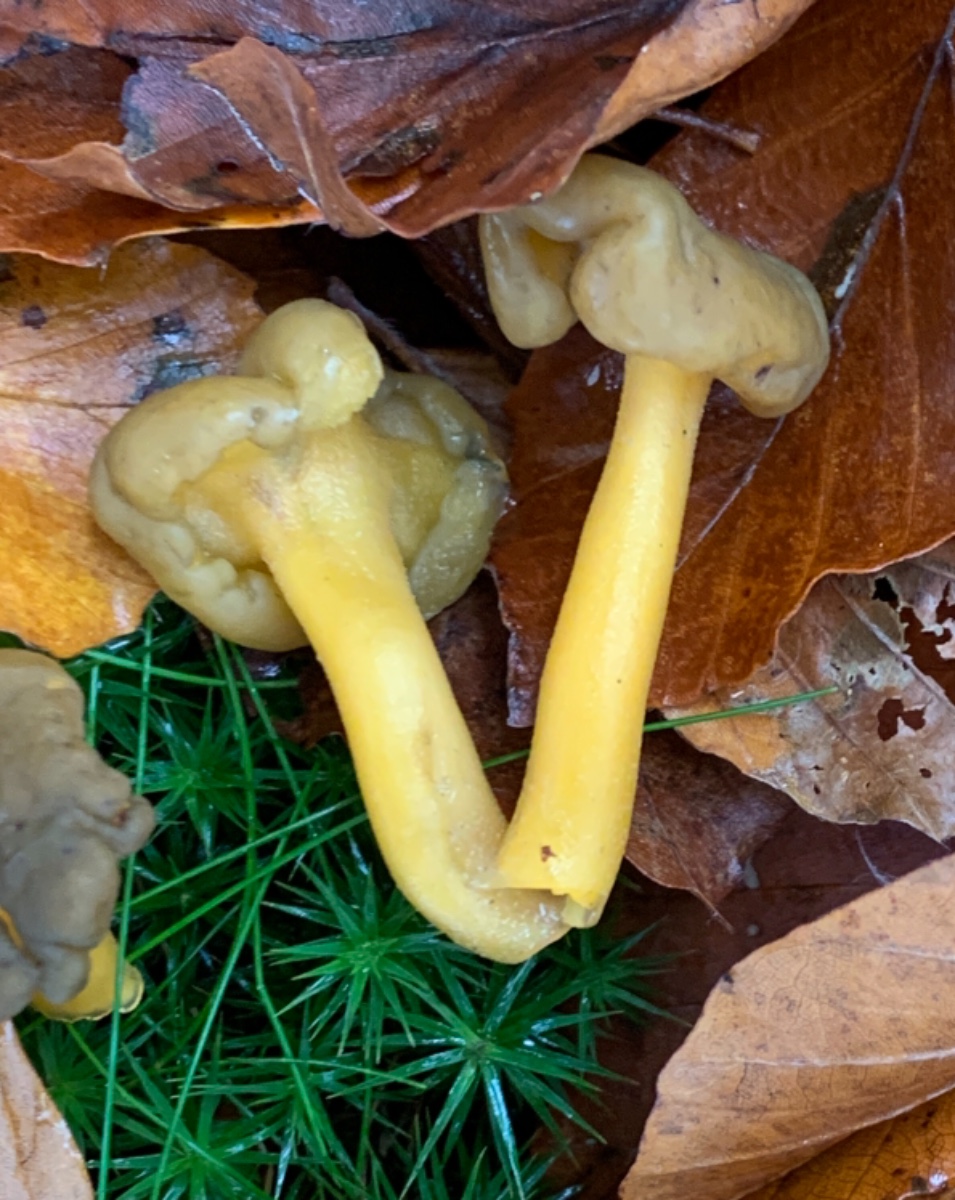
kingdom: Fungi
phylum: Ascomycota
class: Leotiomycetes
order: Leotiales
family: Leotiaceae
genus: Leotia
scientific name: Leotia lubrica
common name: ravsvamp
